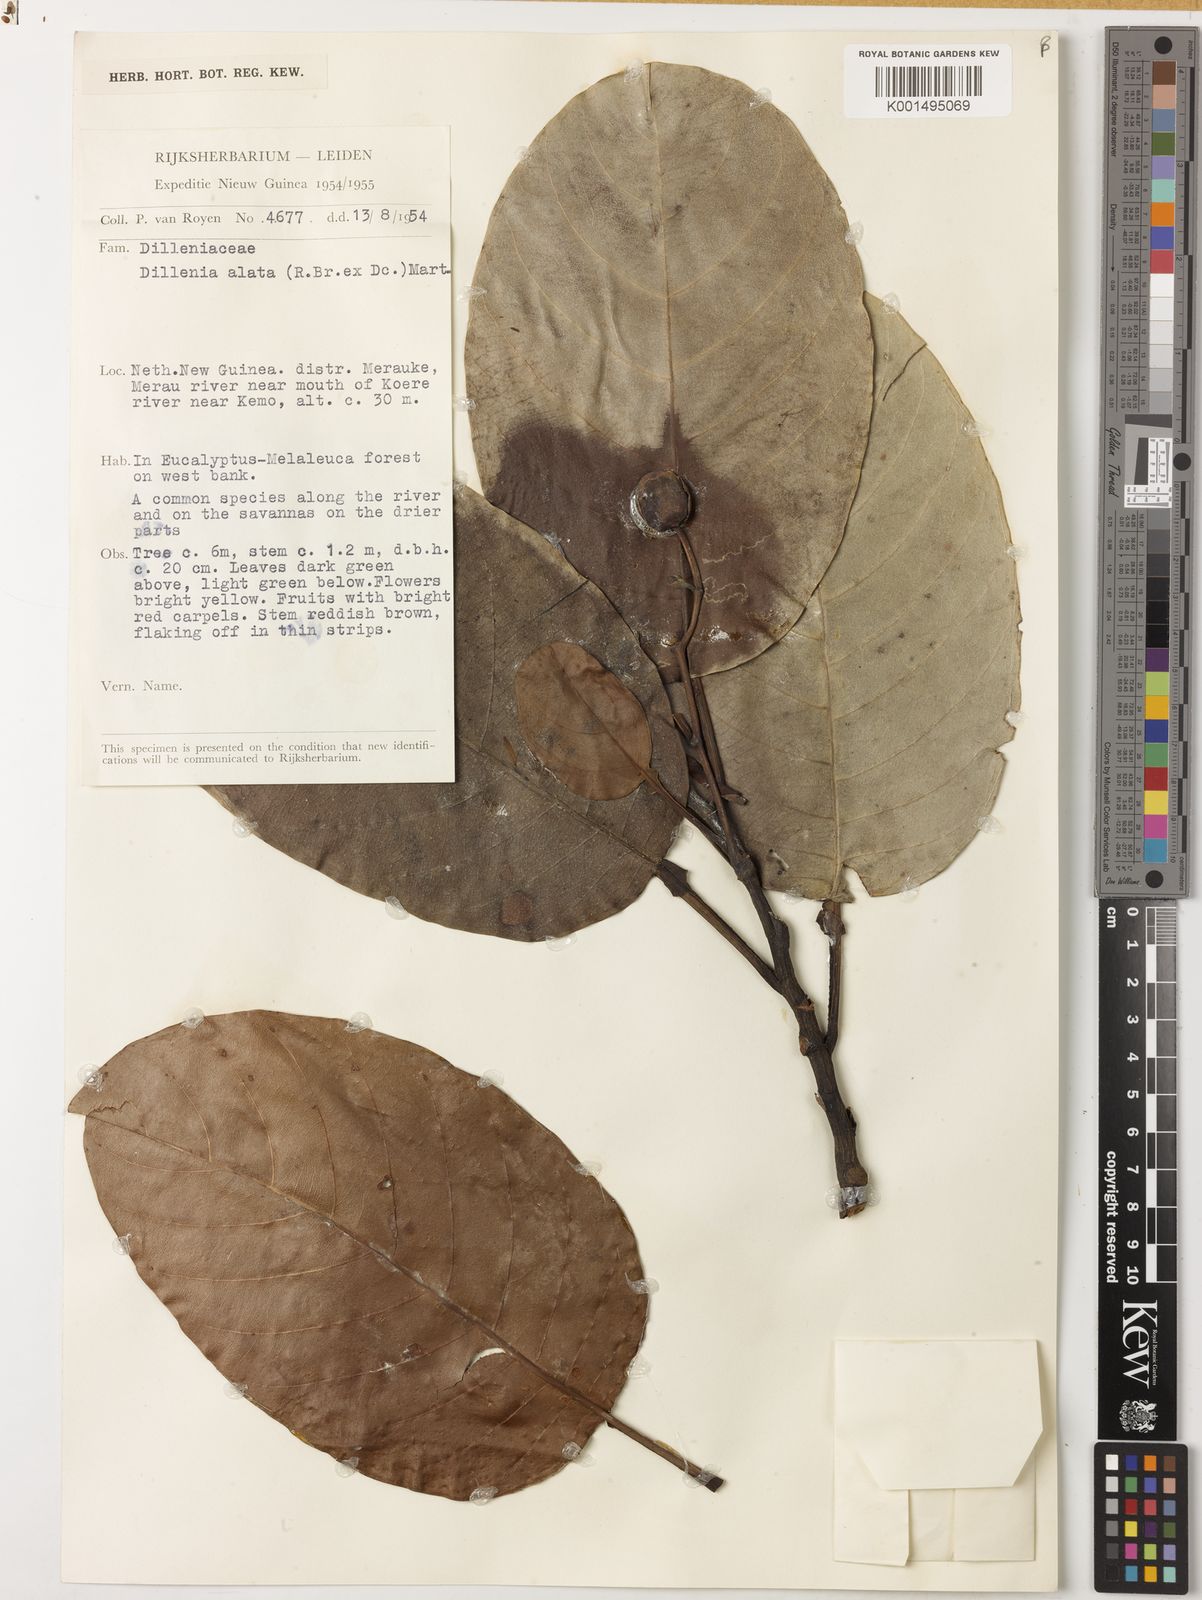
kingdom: Plantae
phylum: Tracheophyta
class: Magnoliopsida
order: Dilleniales
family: Dilleniaceae
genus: Dillenia
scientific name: Dillenia alata
